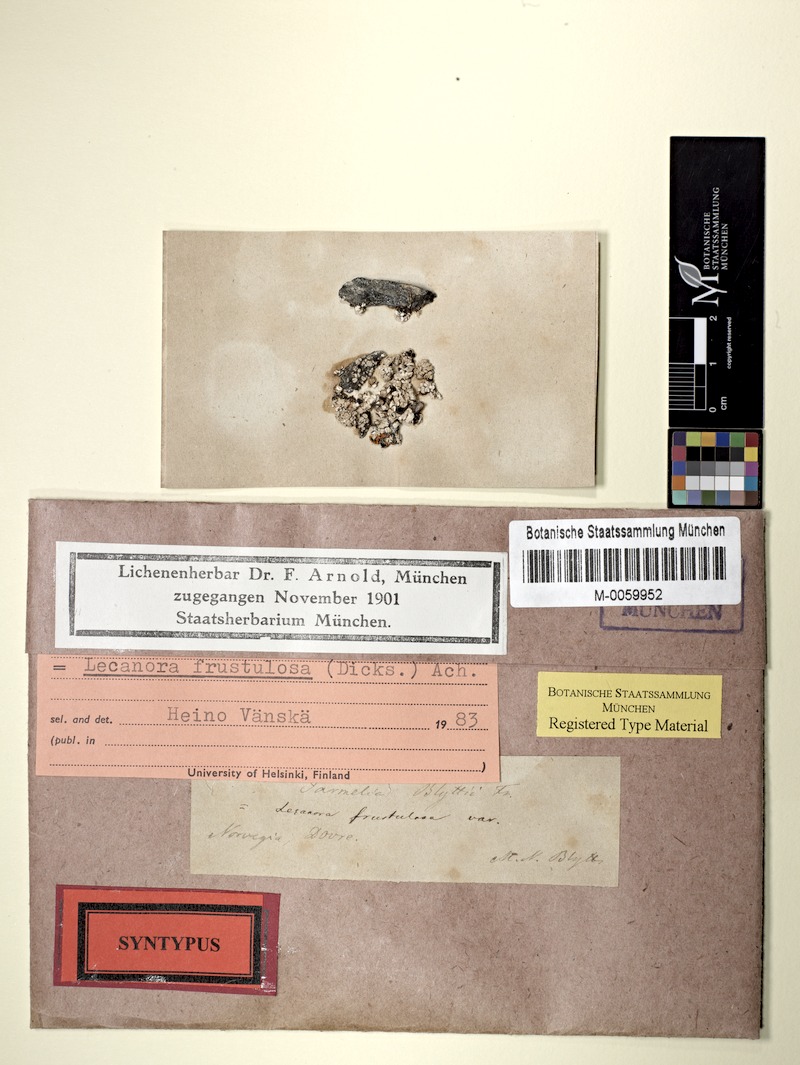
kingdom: Fungi
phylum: Ascomycota
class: Lecanoromycetes
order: Lecanorales
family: Lecanoraceae
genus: Lecanora
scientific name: Lecanora argopholis
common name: Varying rim lichen
